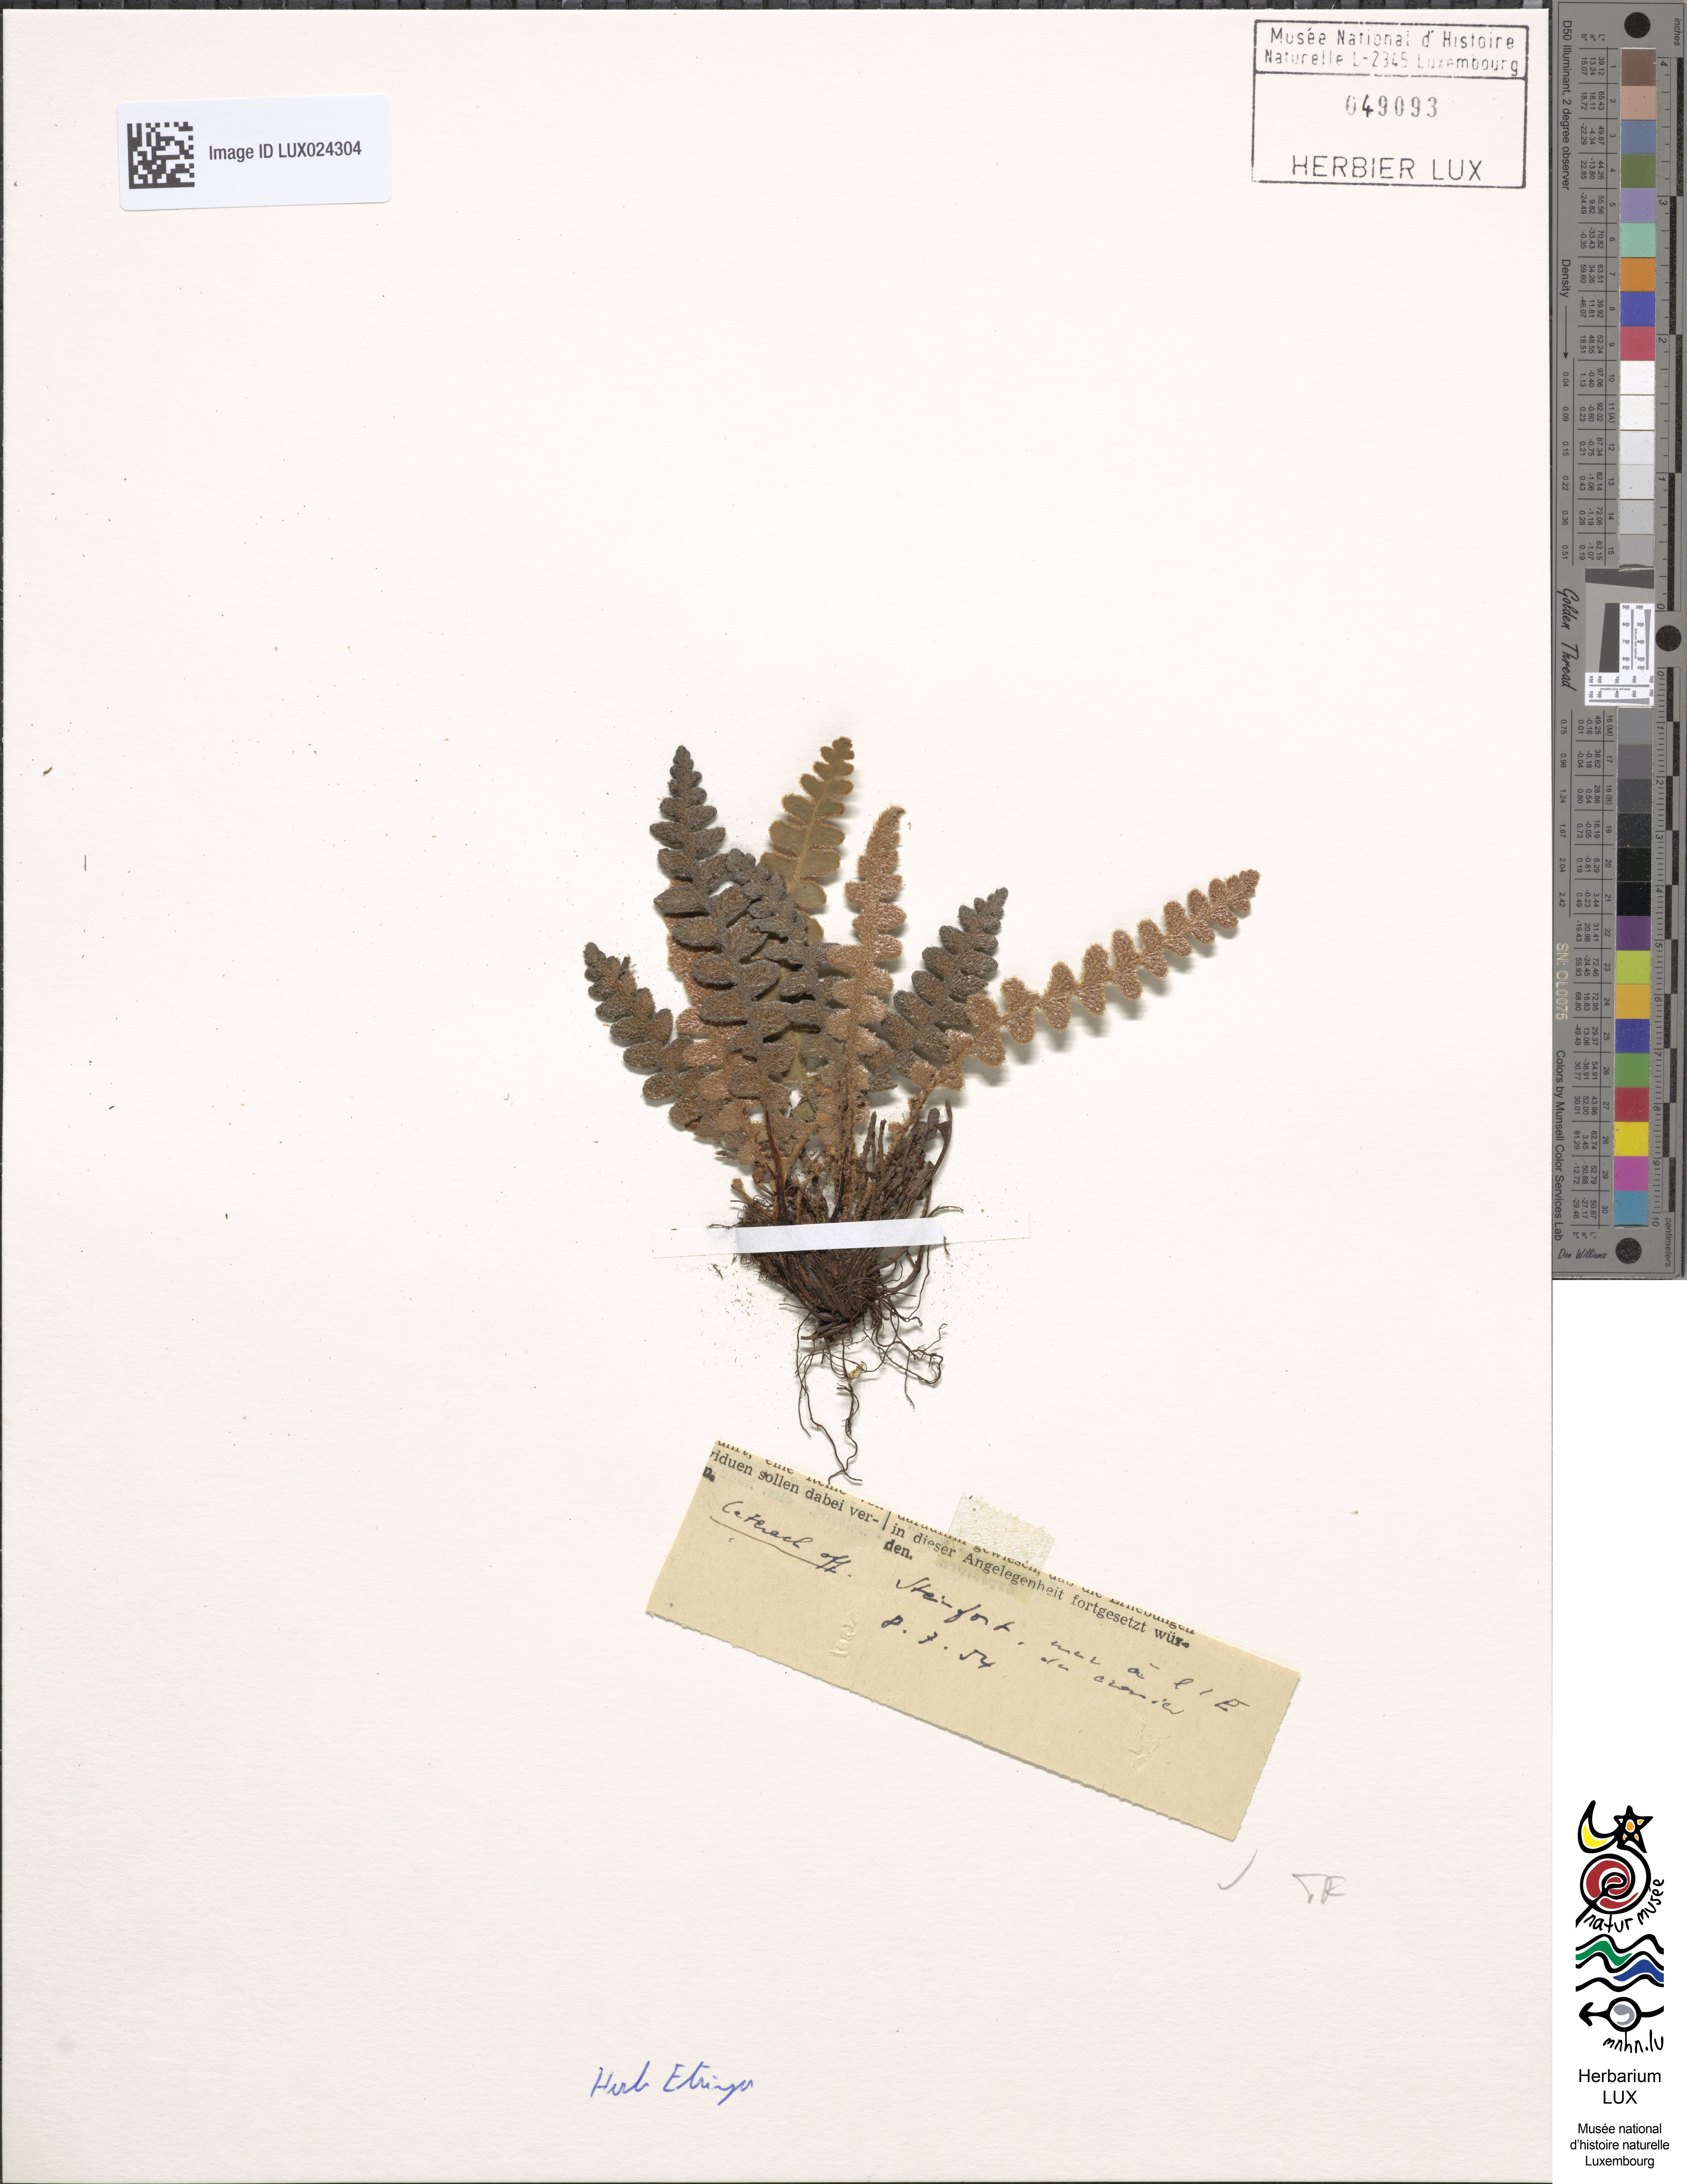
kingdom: Plantae
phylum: Tracheophyta
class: Polypodiopsida
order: Polypodiales
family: Aspleniaceae
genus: Asplenium
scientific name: Asplenium ceterach
